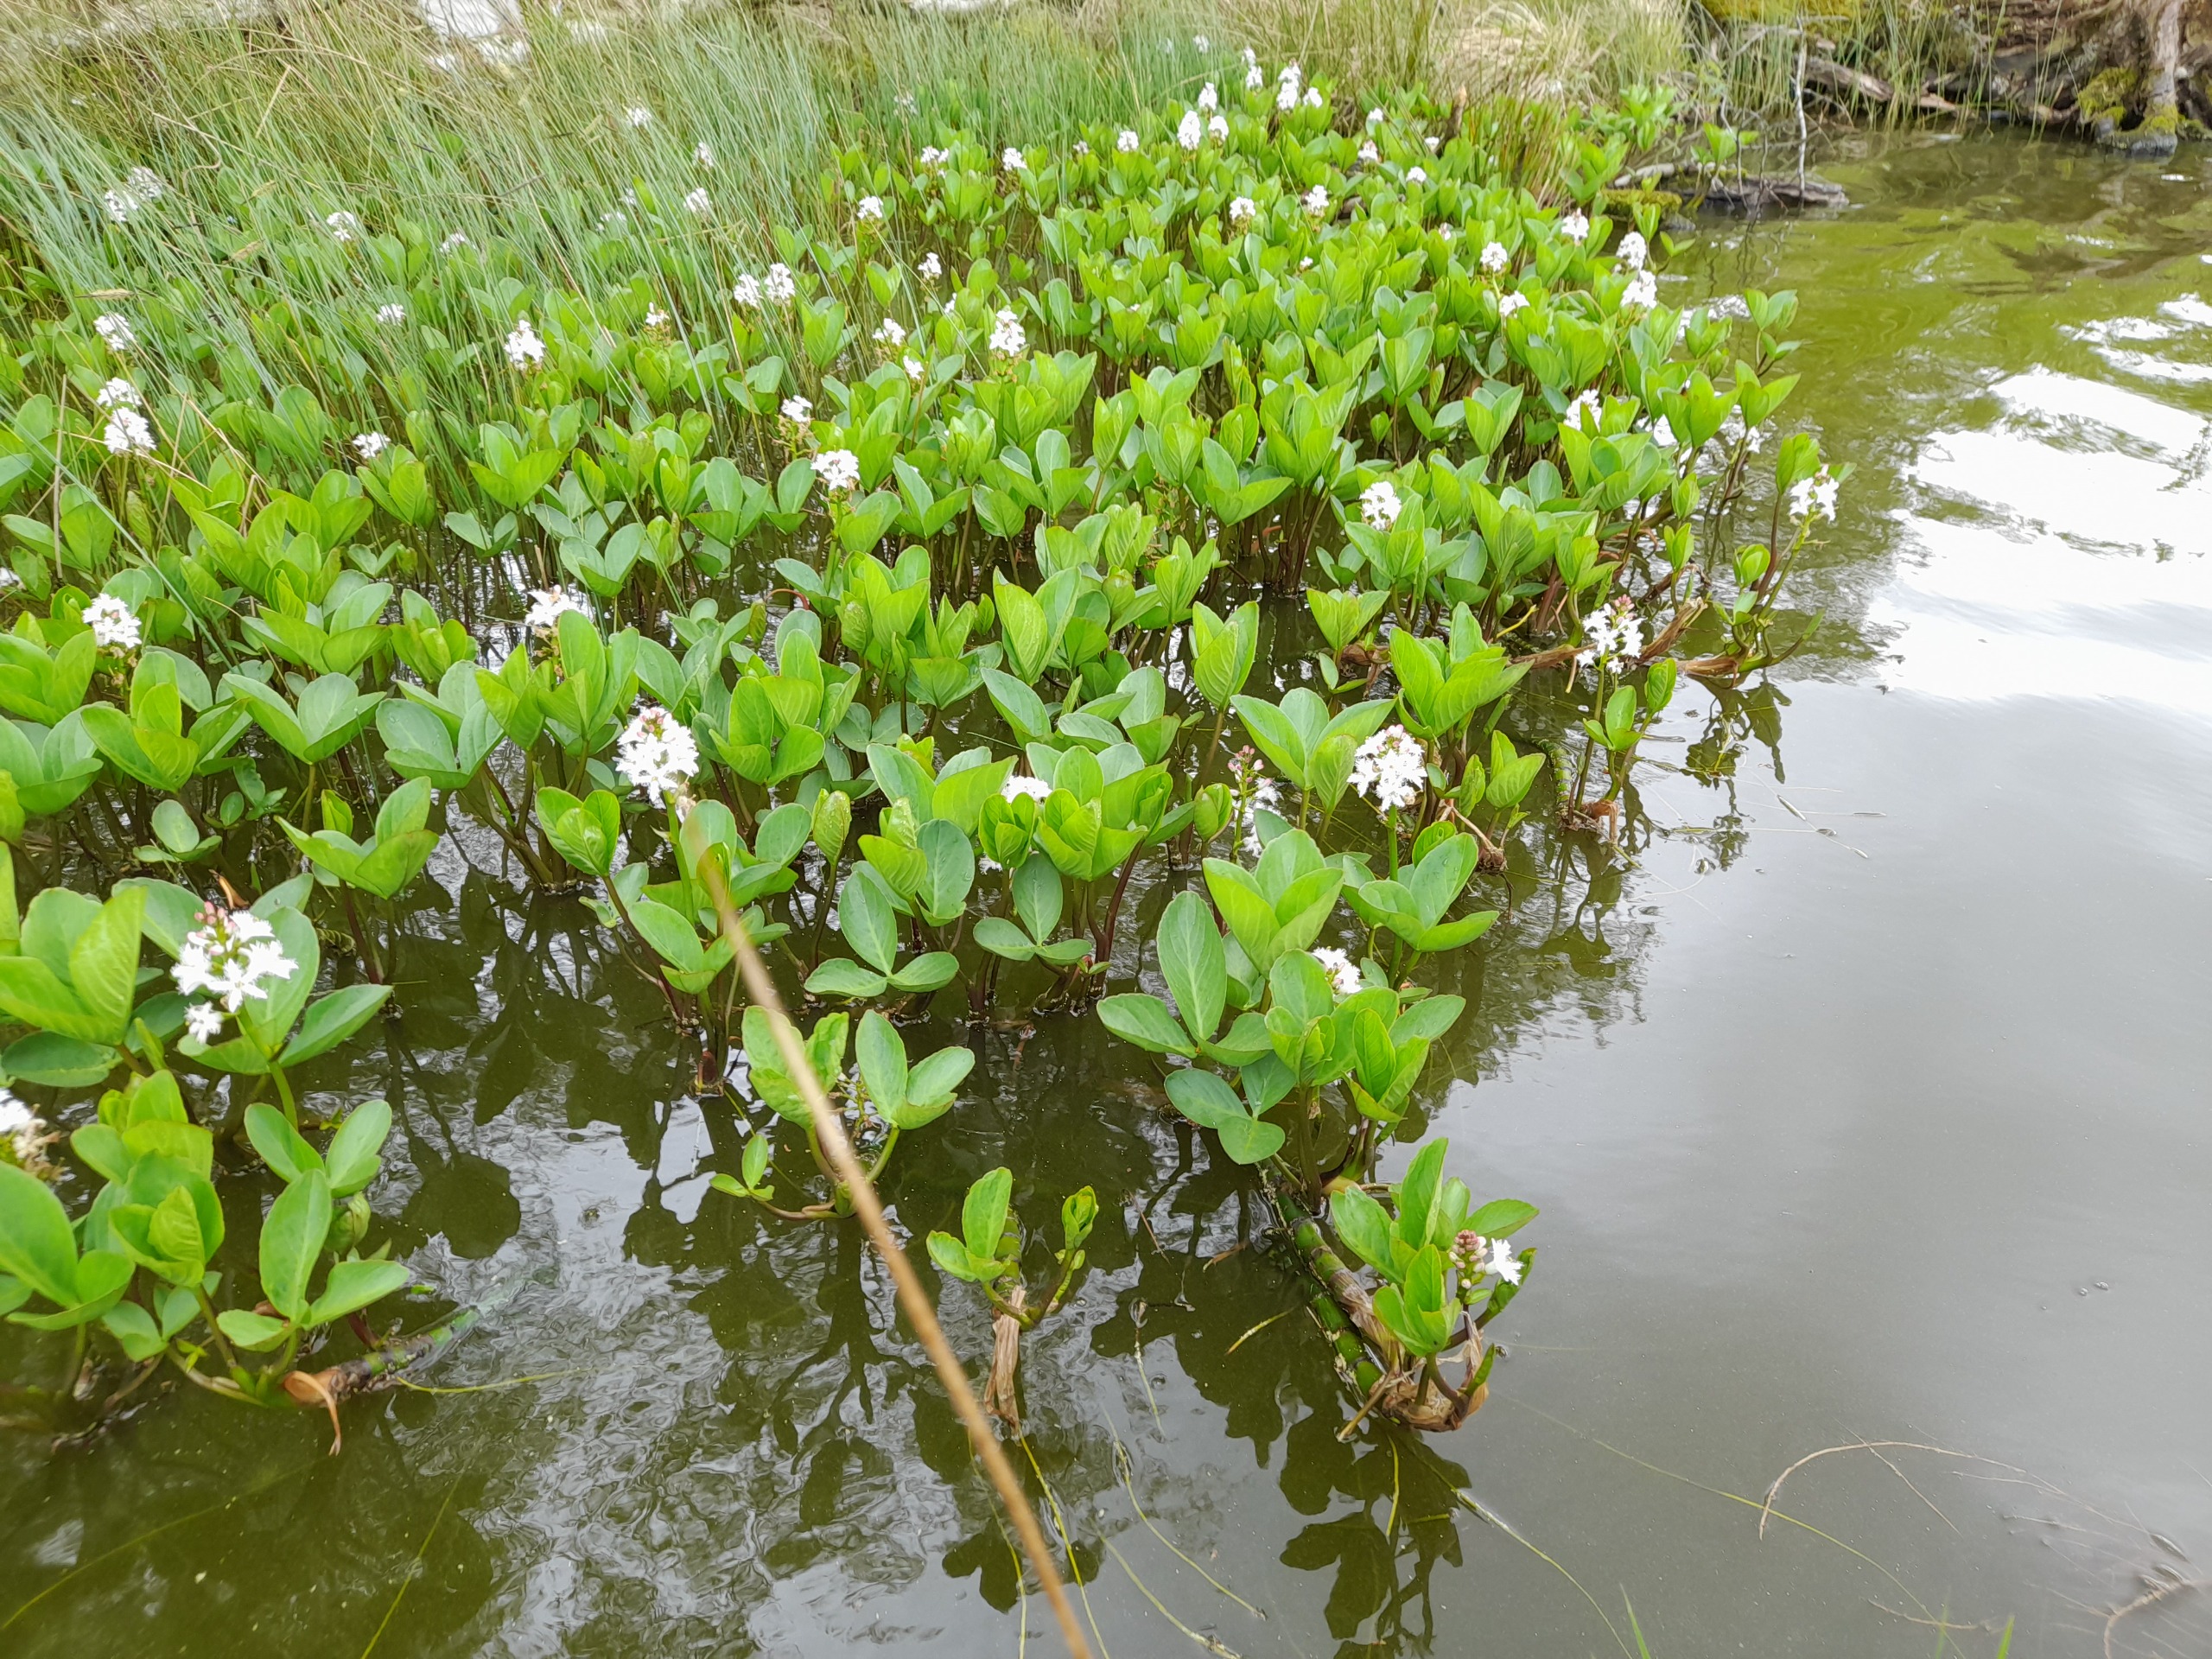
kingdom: Plantae
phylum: Tracheophyta
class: Magnoliopsida
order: Asterales
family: Menyanthaceae
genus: Menyanthes
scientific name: Menyanthes trifoliata
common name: Bukkeblad
